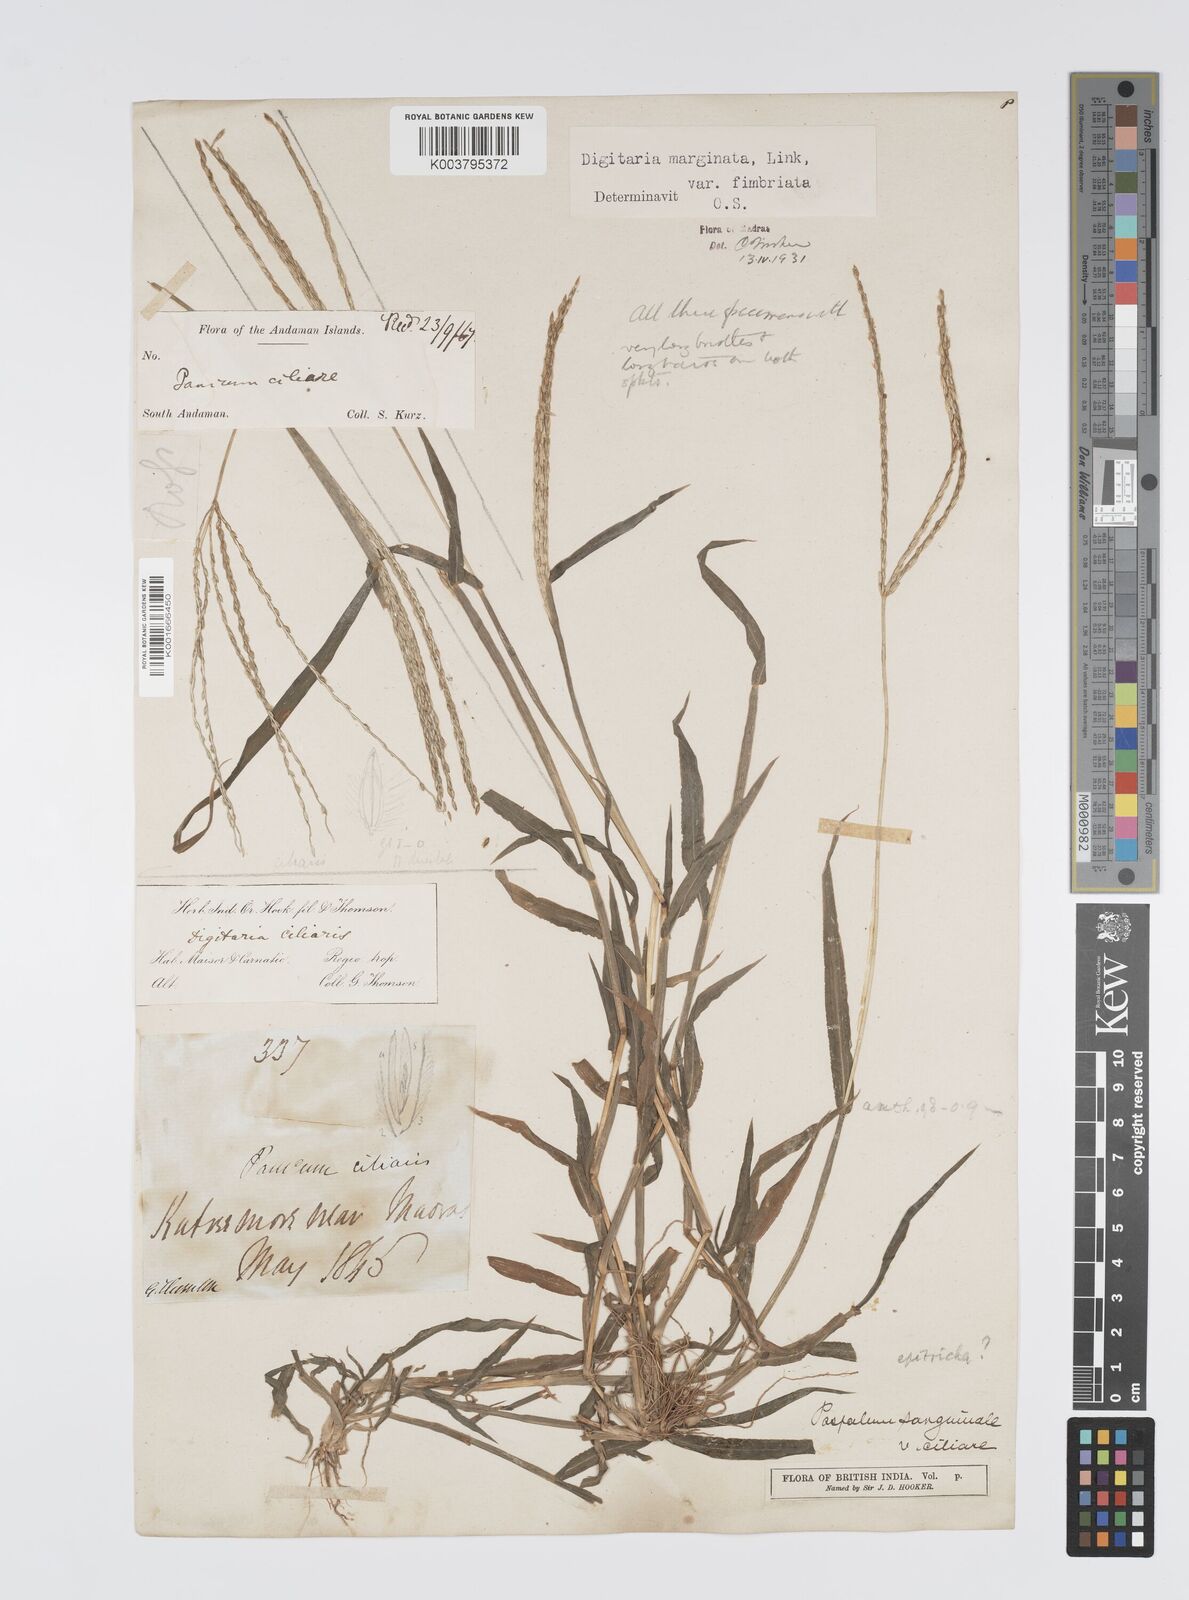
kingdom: Plantae
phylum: Tracheophyta
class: Liliopsida
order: Poales
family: Poaceae
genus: Digitaria
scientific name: Digitaria ciliaris
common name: Tropical finger-grass
